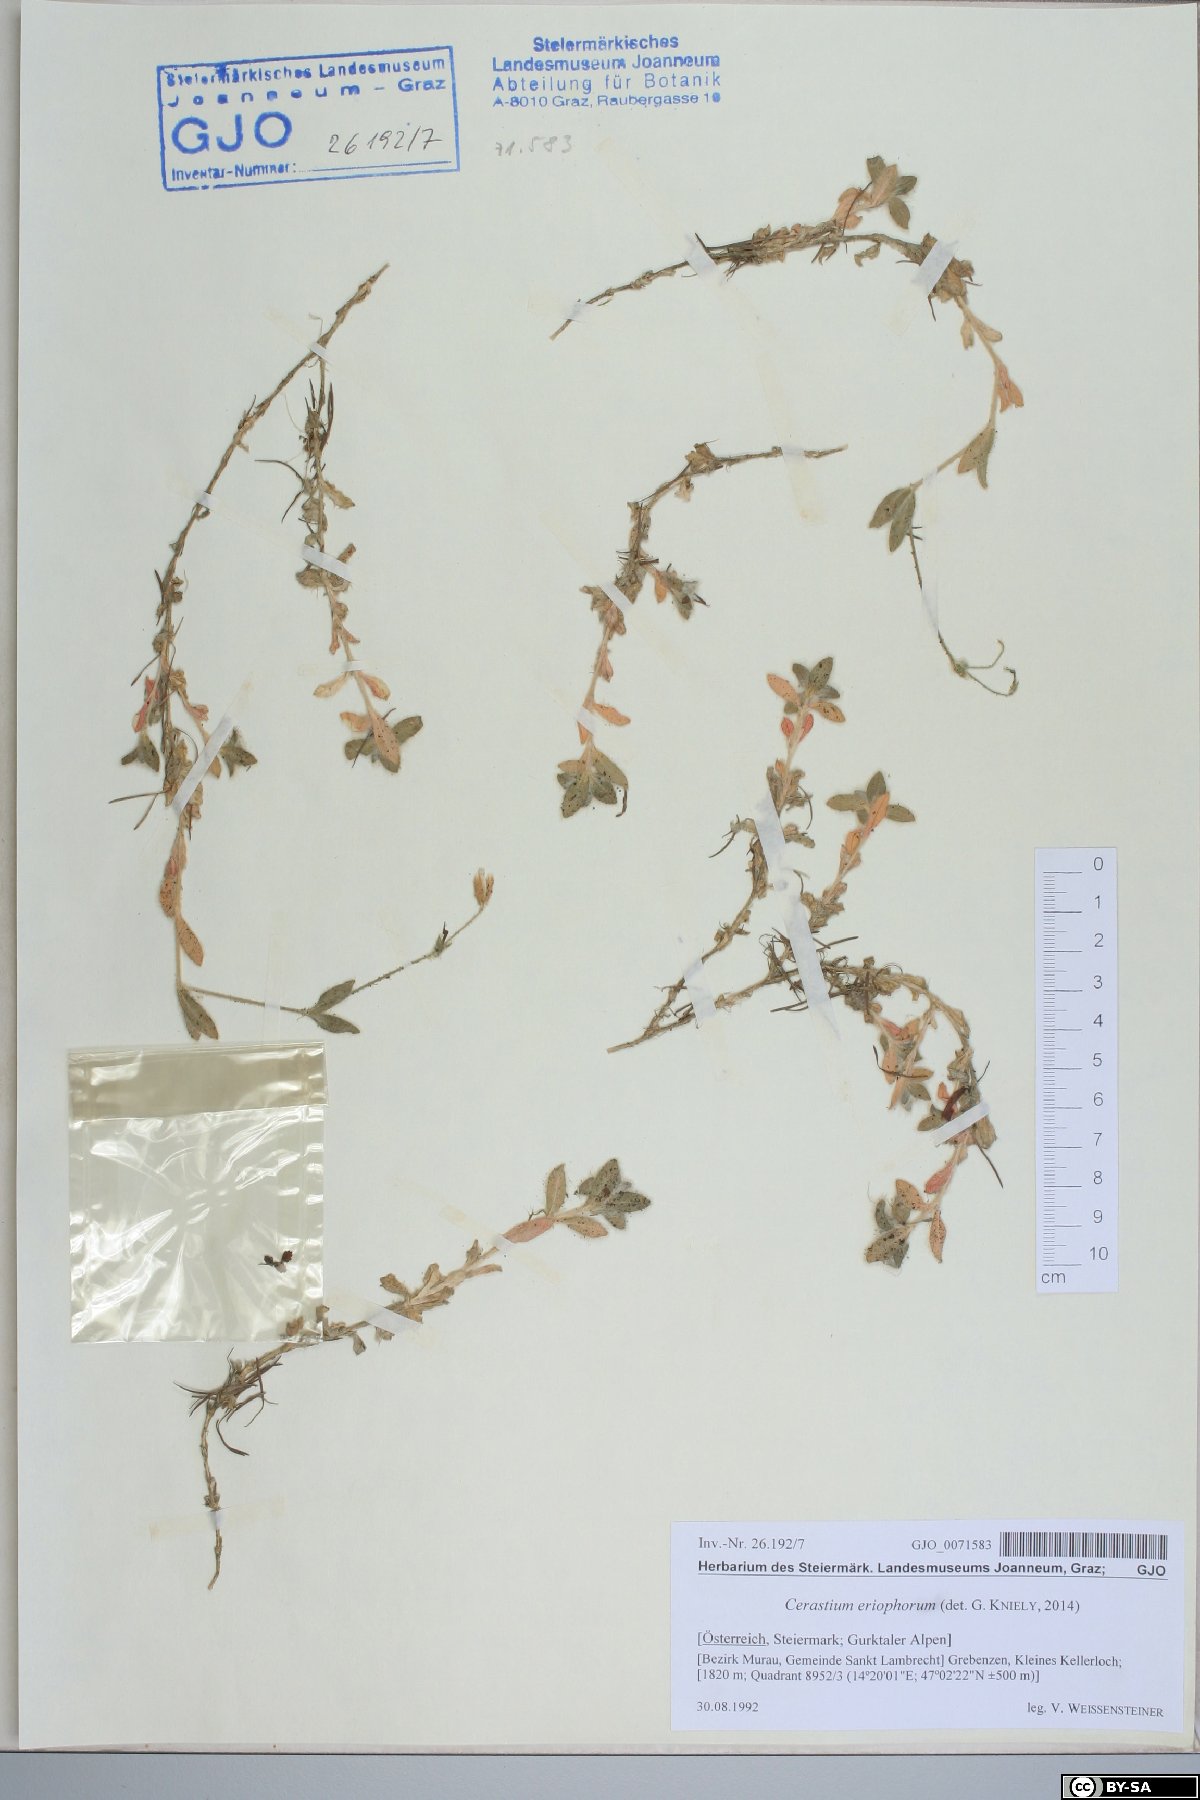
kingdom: Plantae
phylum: Tracheophyta
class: Magnoliopsida
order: Caryophyllales
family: Caryophyllaceae
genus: Cerastium
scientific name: Cerastium eriophorum
